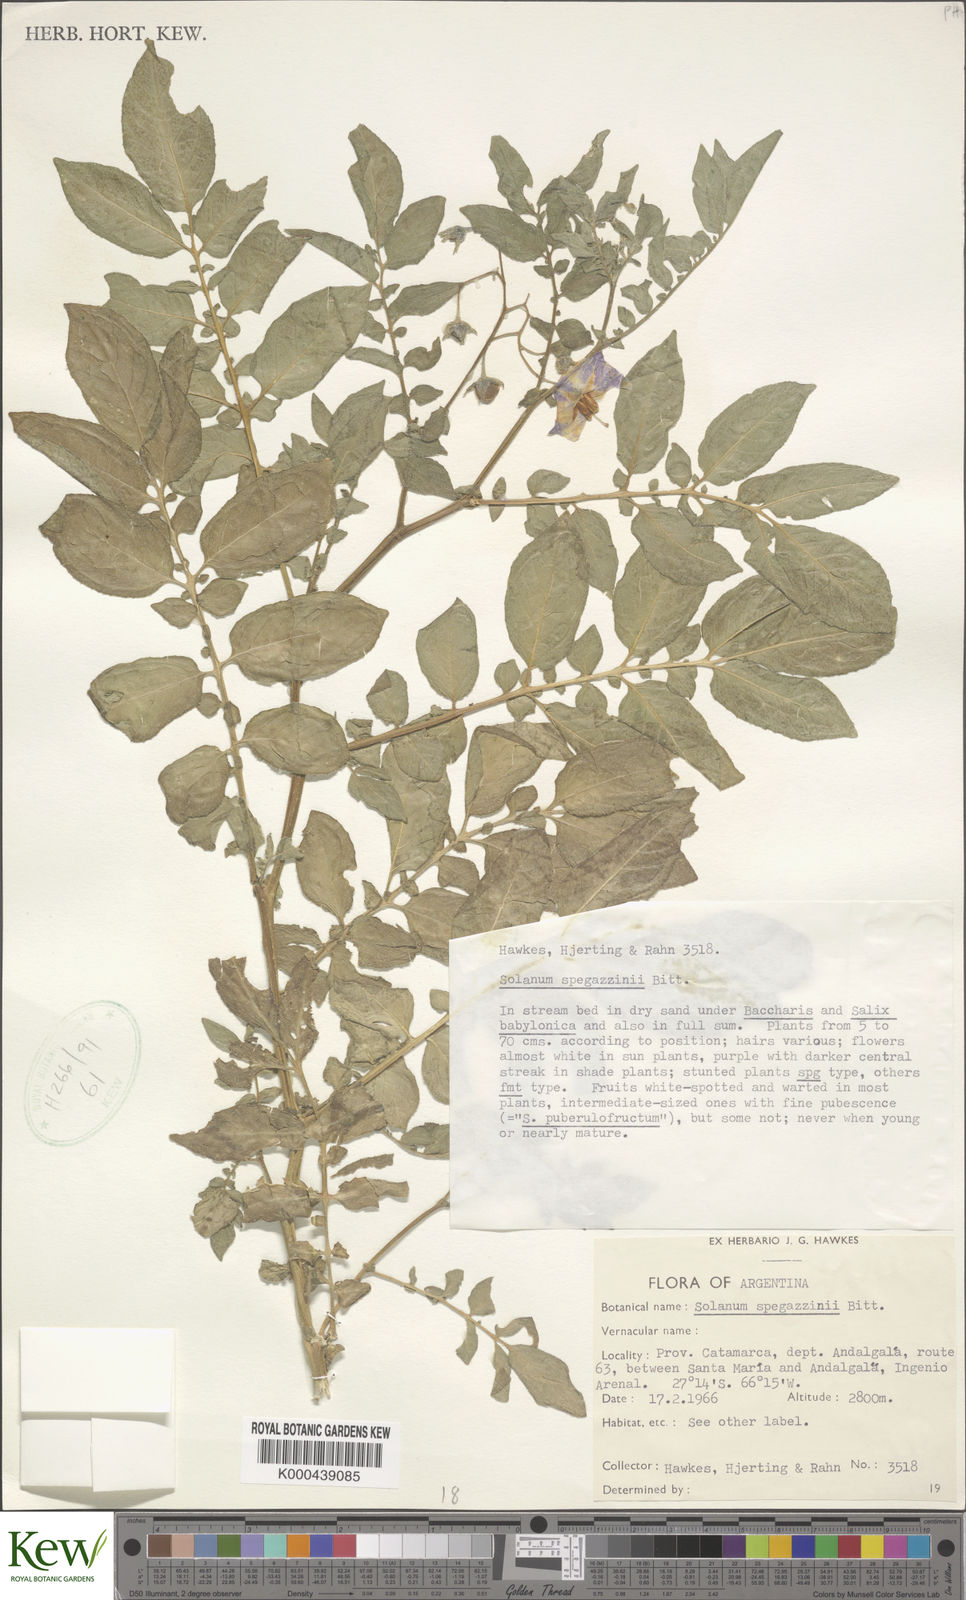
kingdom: Plantae
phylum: Tracheophyta
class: Magnoliopsida
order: Solanales
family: Solanaceae
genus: Solanum
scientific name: Solanum brevicaule
